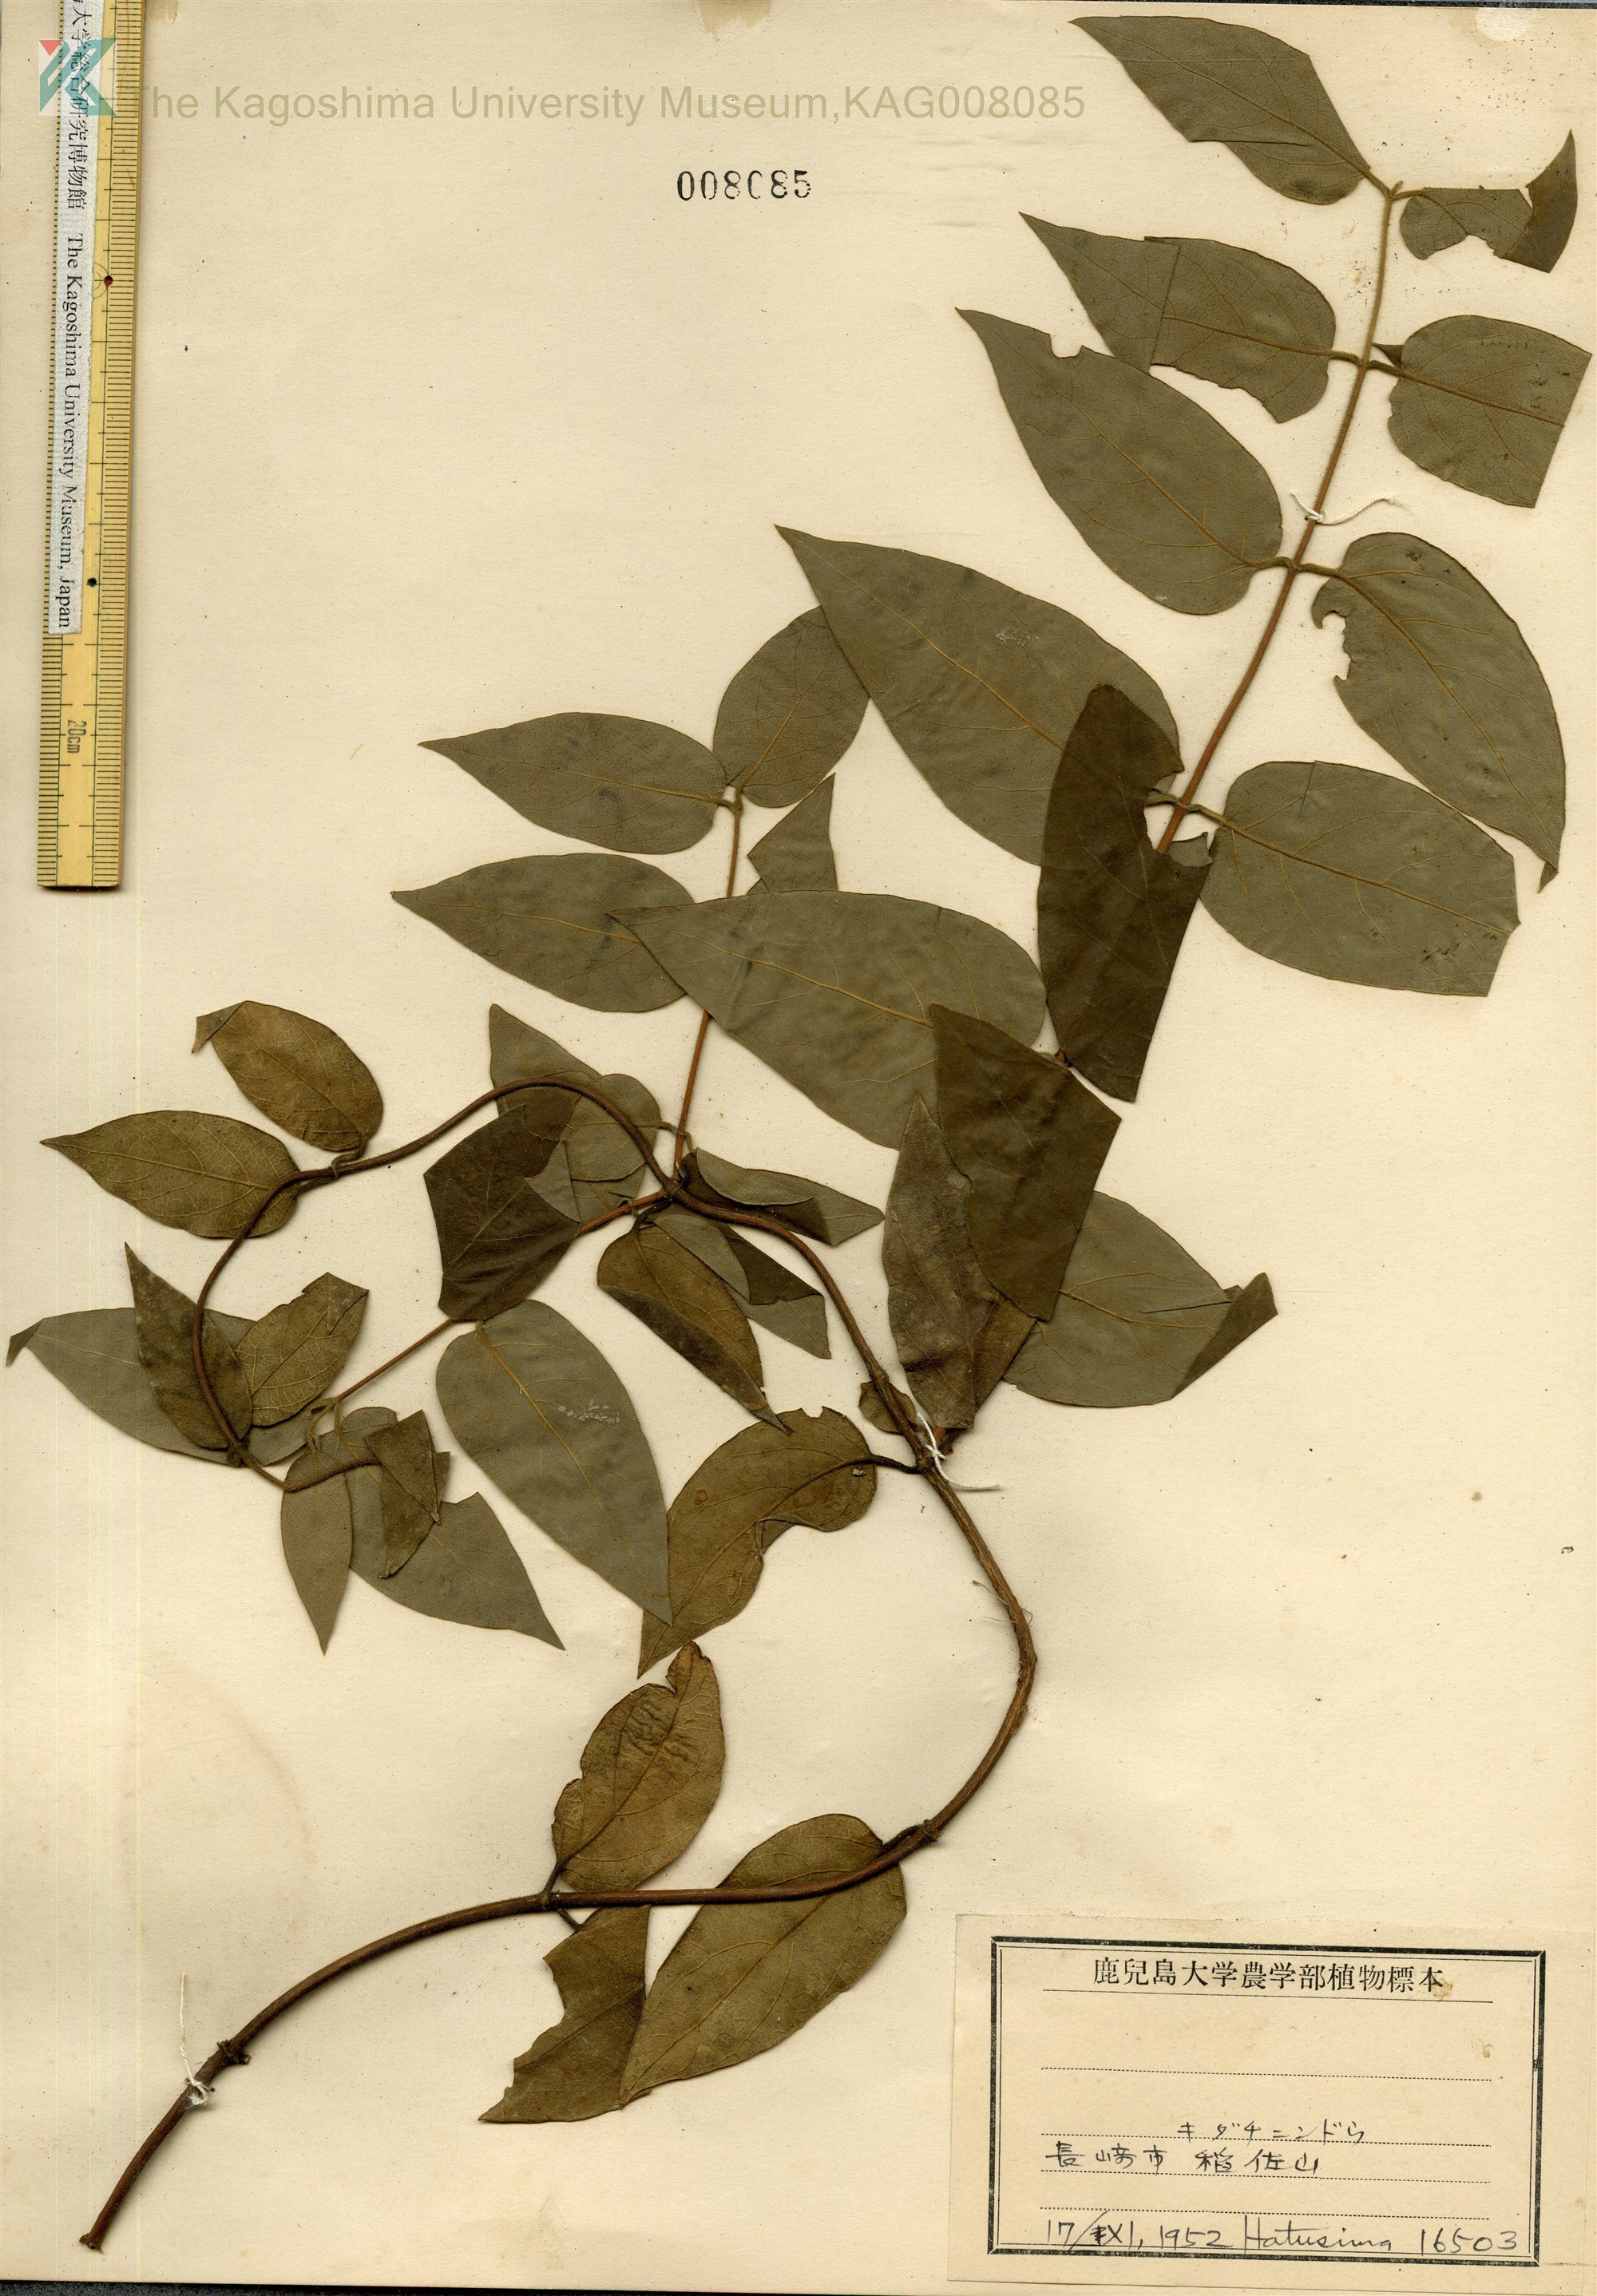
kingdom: Plantae
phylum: Tracheophyta
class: Magnoliopsida
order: Dipsacales
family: Caprifoliaceae
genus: Lonicera
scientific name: Lonicera hypoglauca
